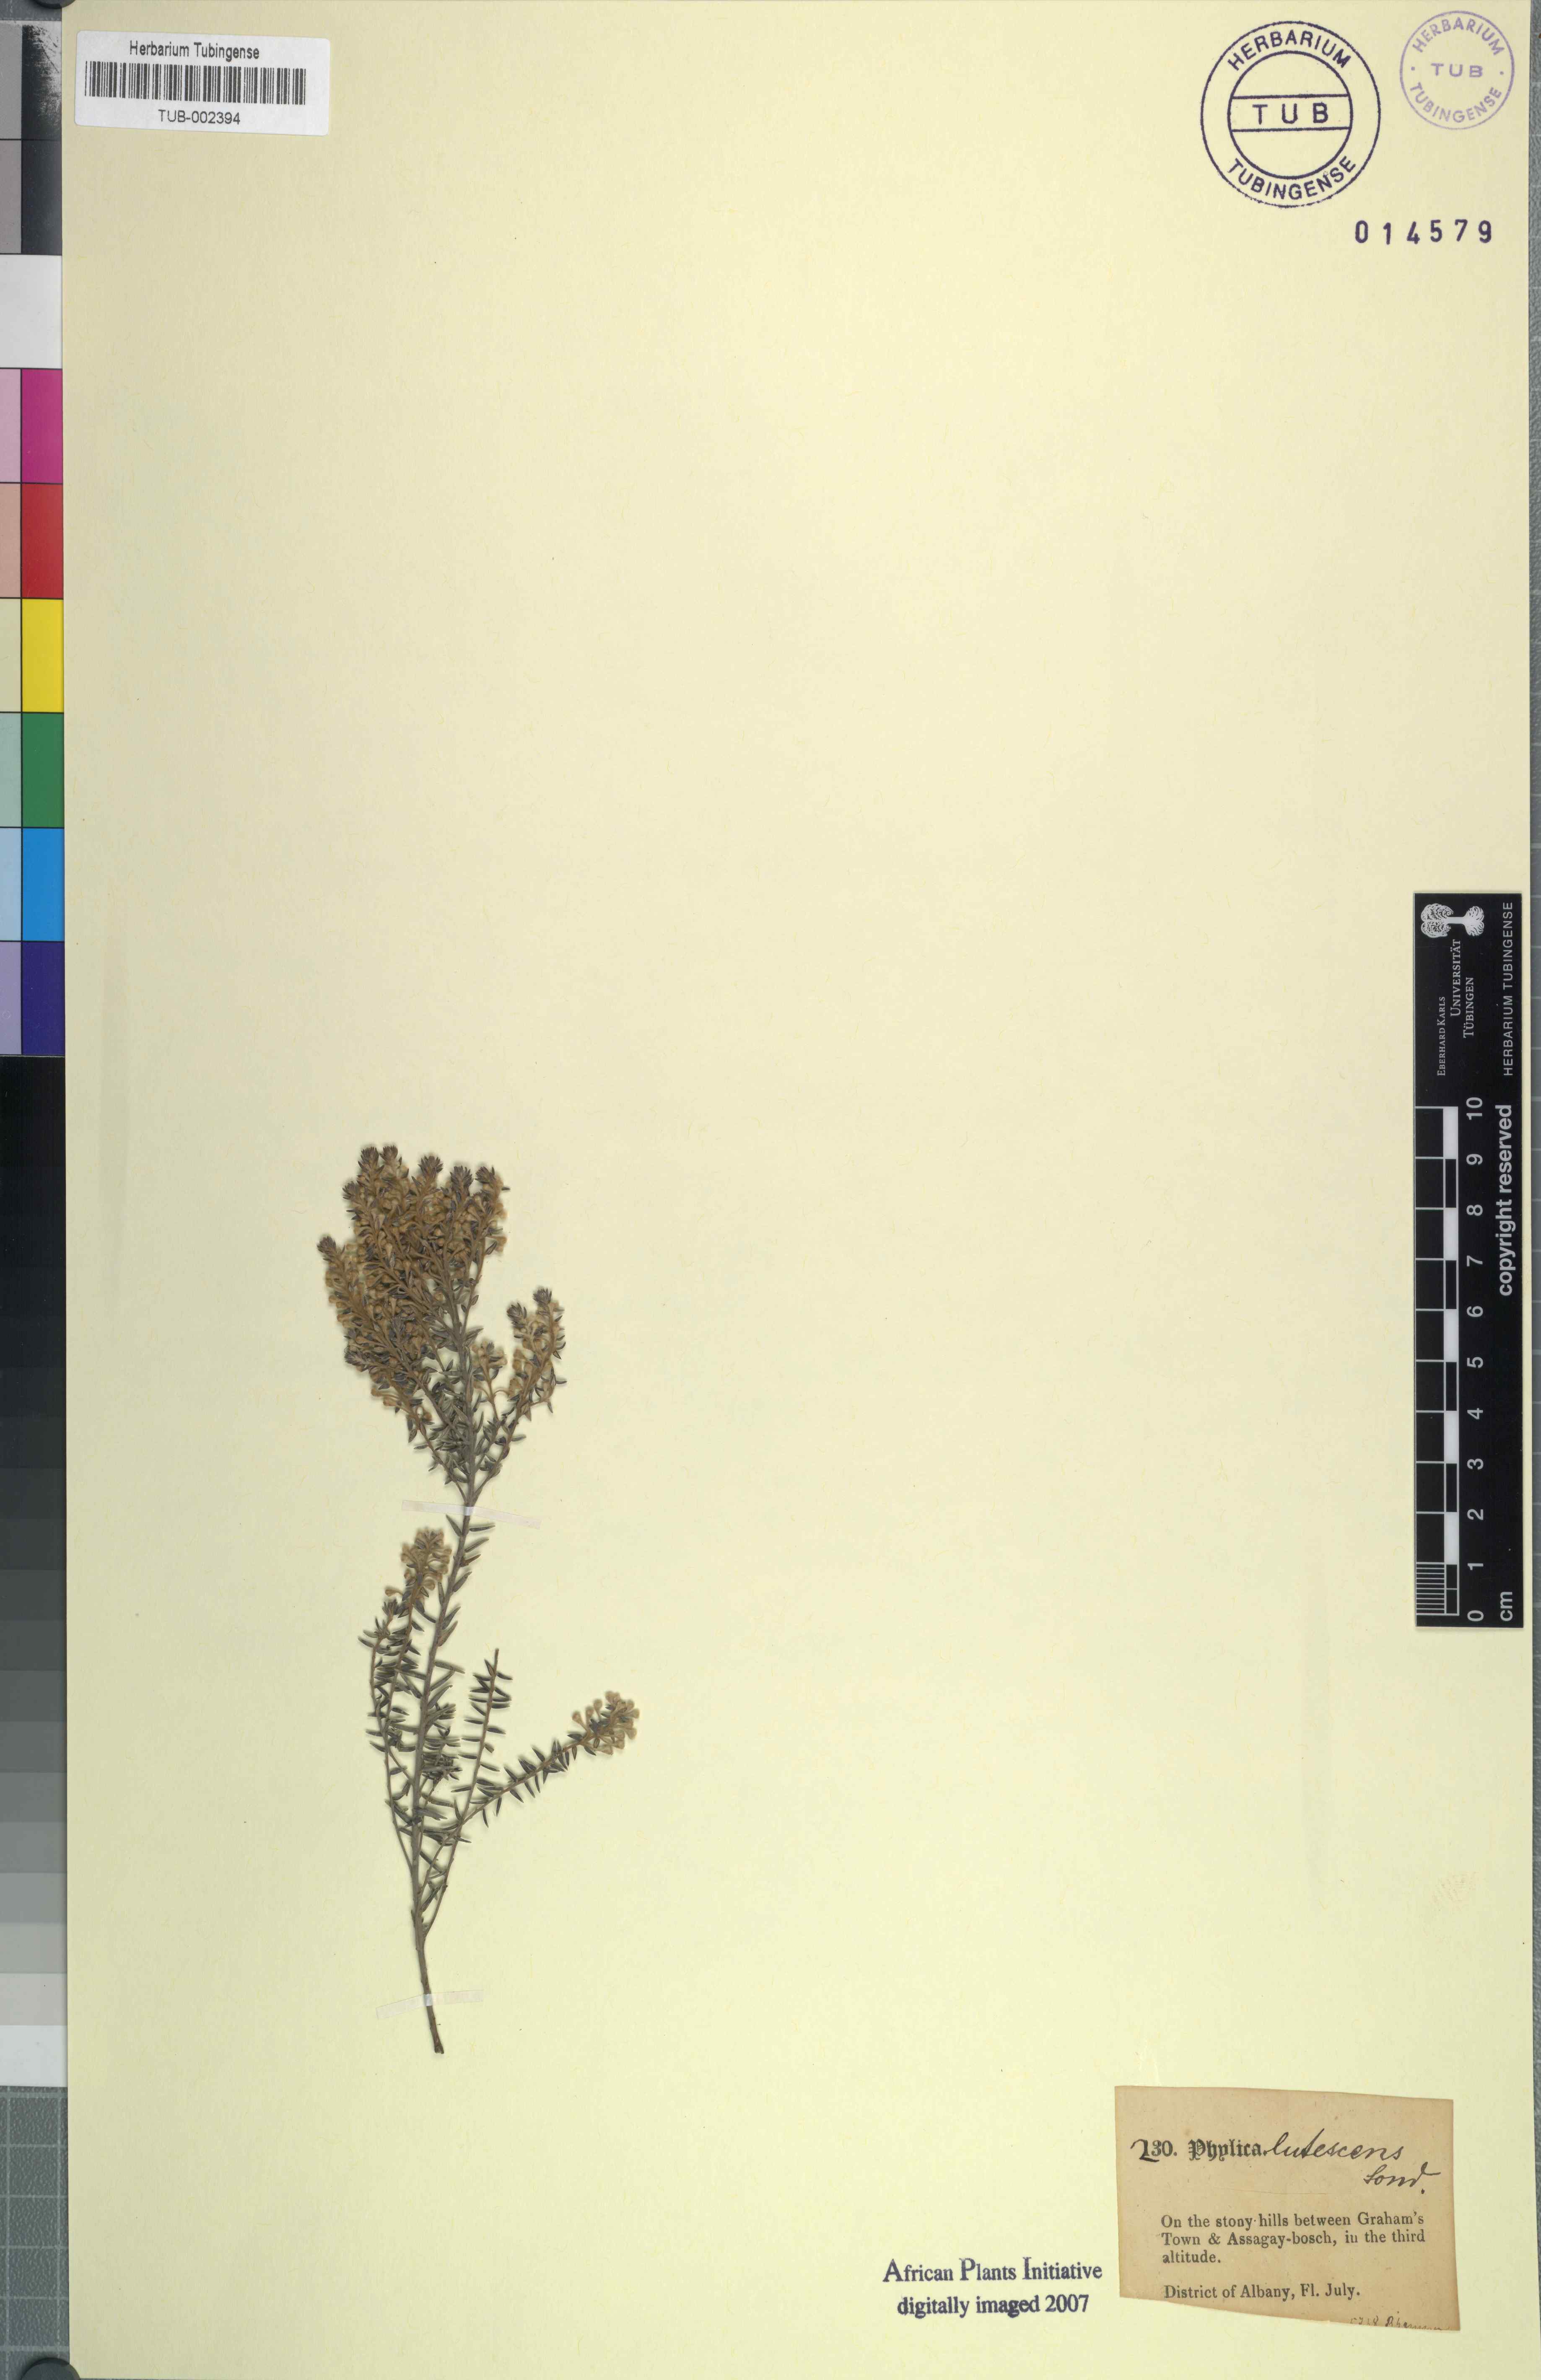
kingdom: Plantae
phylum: Tracheophyta
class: Magnoliopsida
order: Rosales
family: Rhamnaceae
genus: Phylica
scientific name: Phylica axillaris
